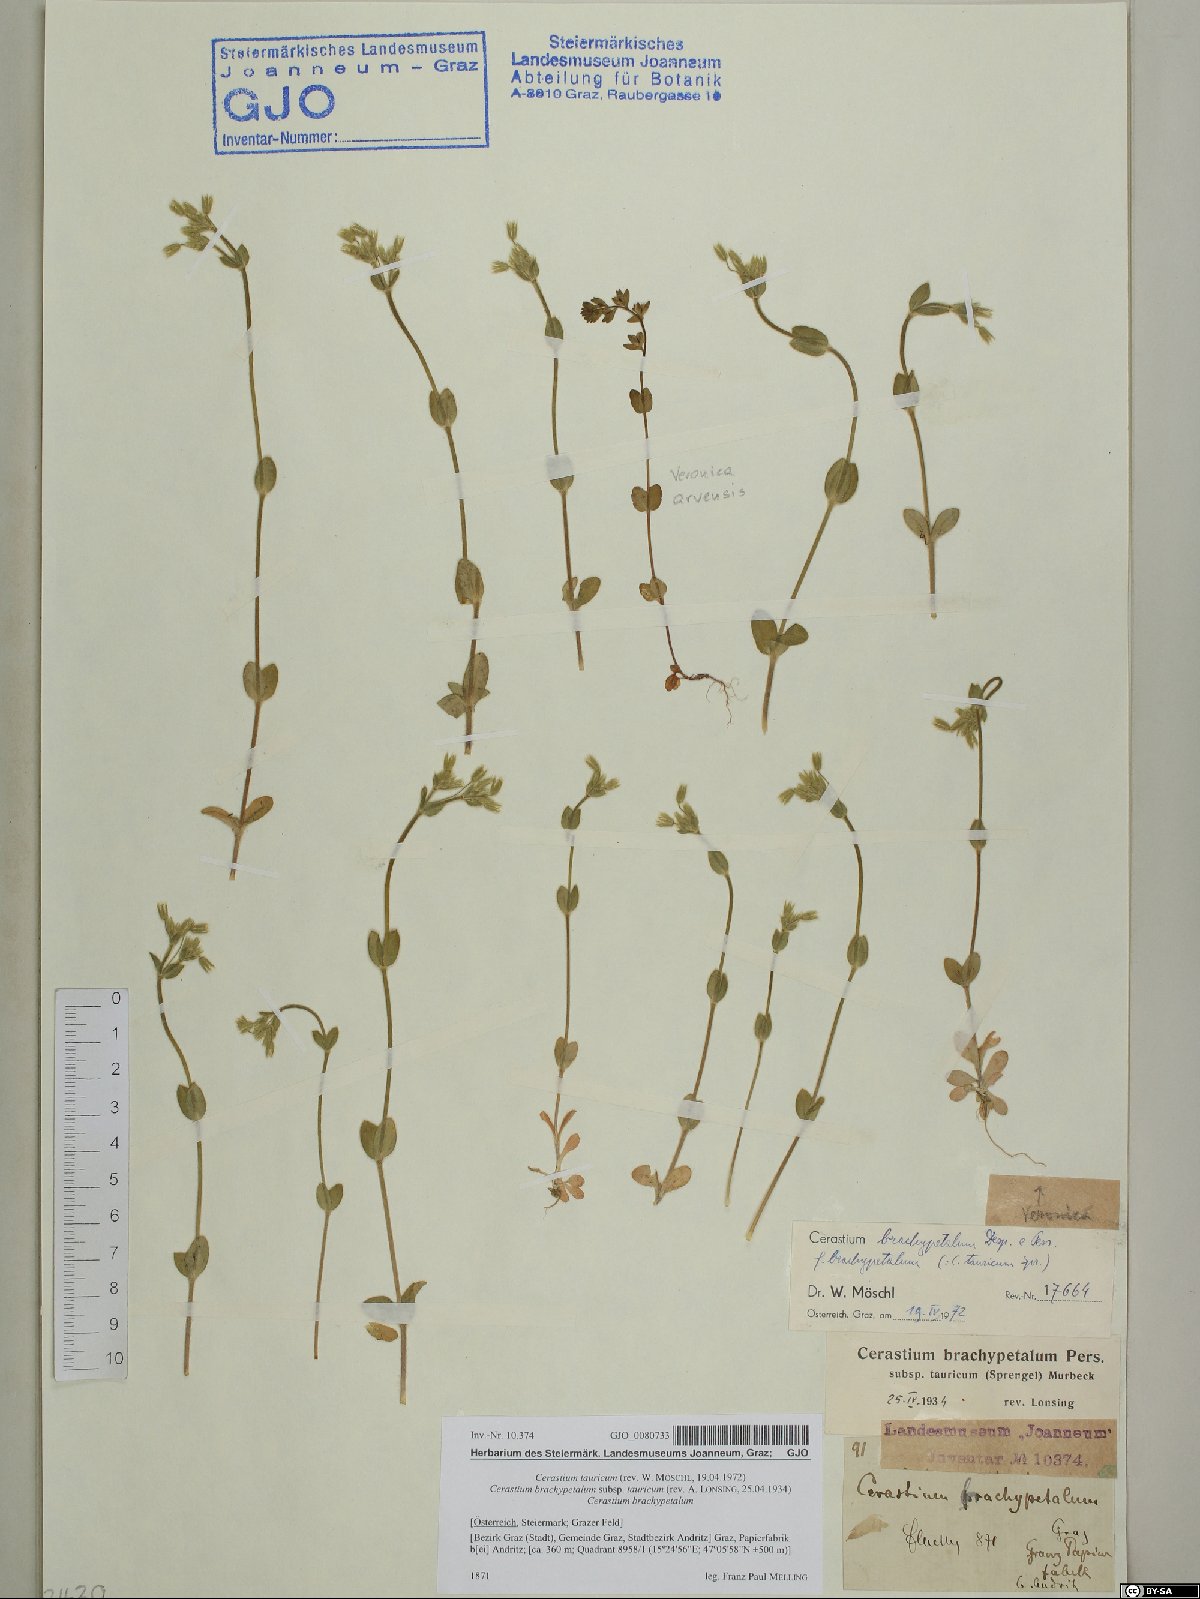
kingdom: Plantae
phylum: Tracheophyta
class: Magnoliopsida
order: Caryophyllales
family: Caryophyllaceae
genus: Cerastium
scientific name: Cerastium brachypetalum
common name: Grey mouse-ear
